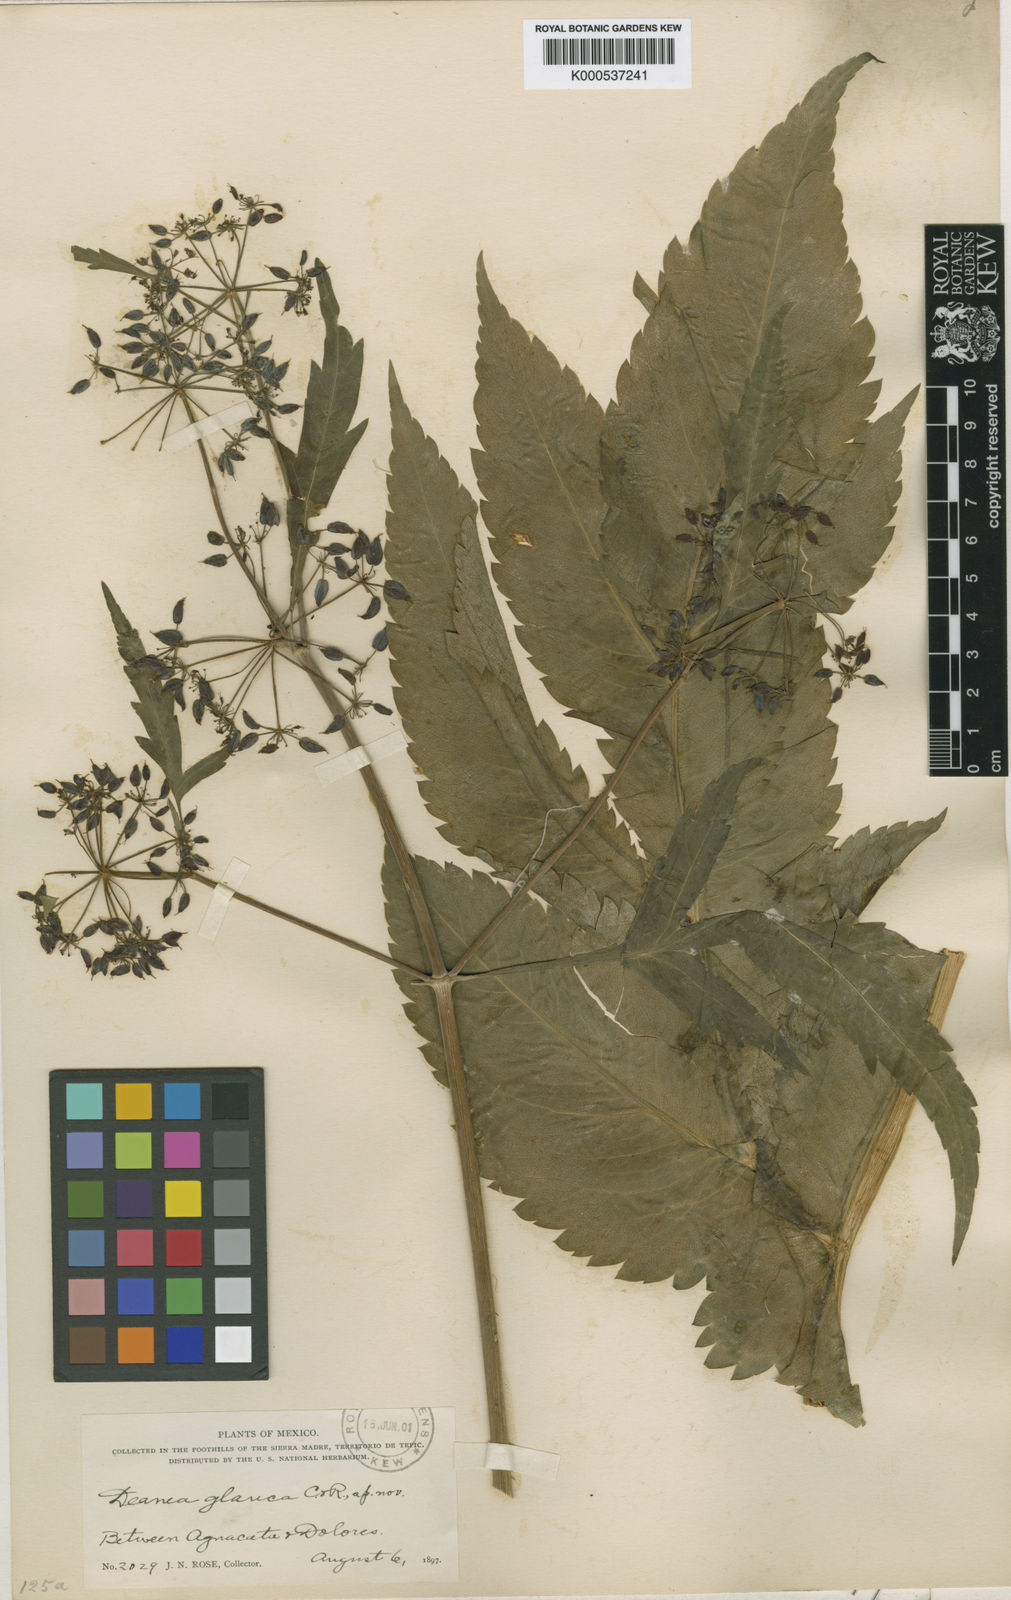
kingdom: Plantae
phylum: Tracheophyta
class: Magnoliopsida
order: Apiales
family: Apiaceae
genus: Rhodosciadium
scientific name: Rhodosciadium macrophyllum
